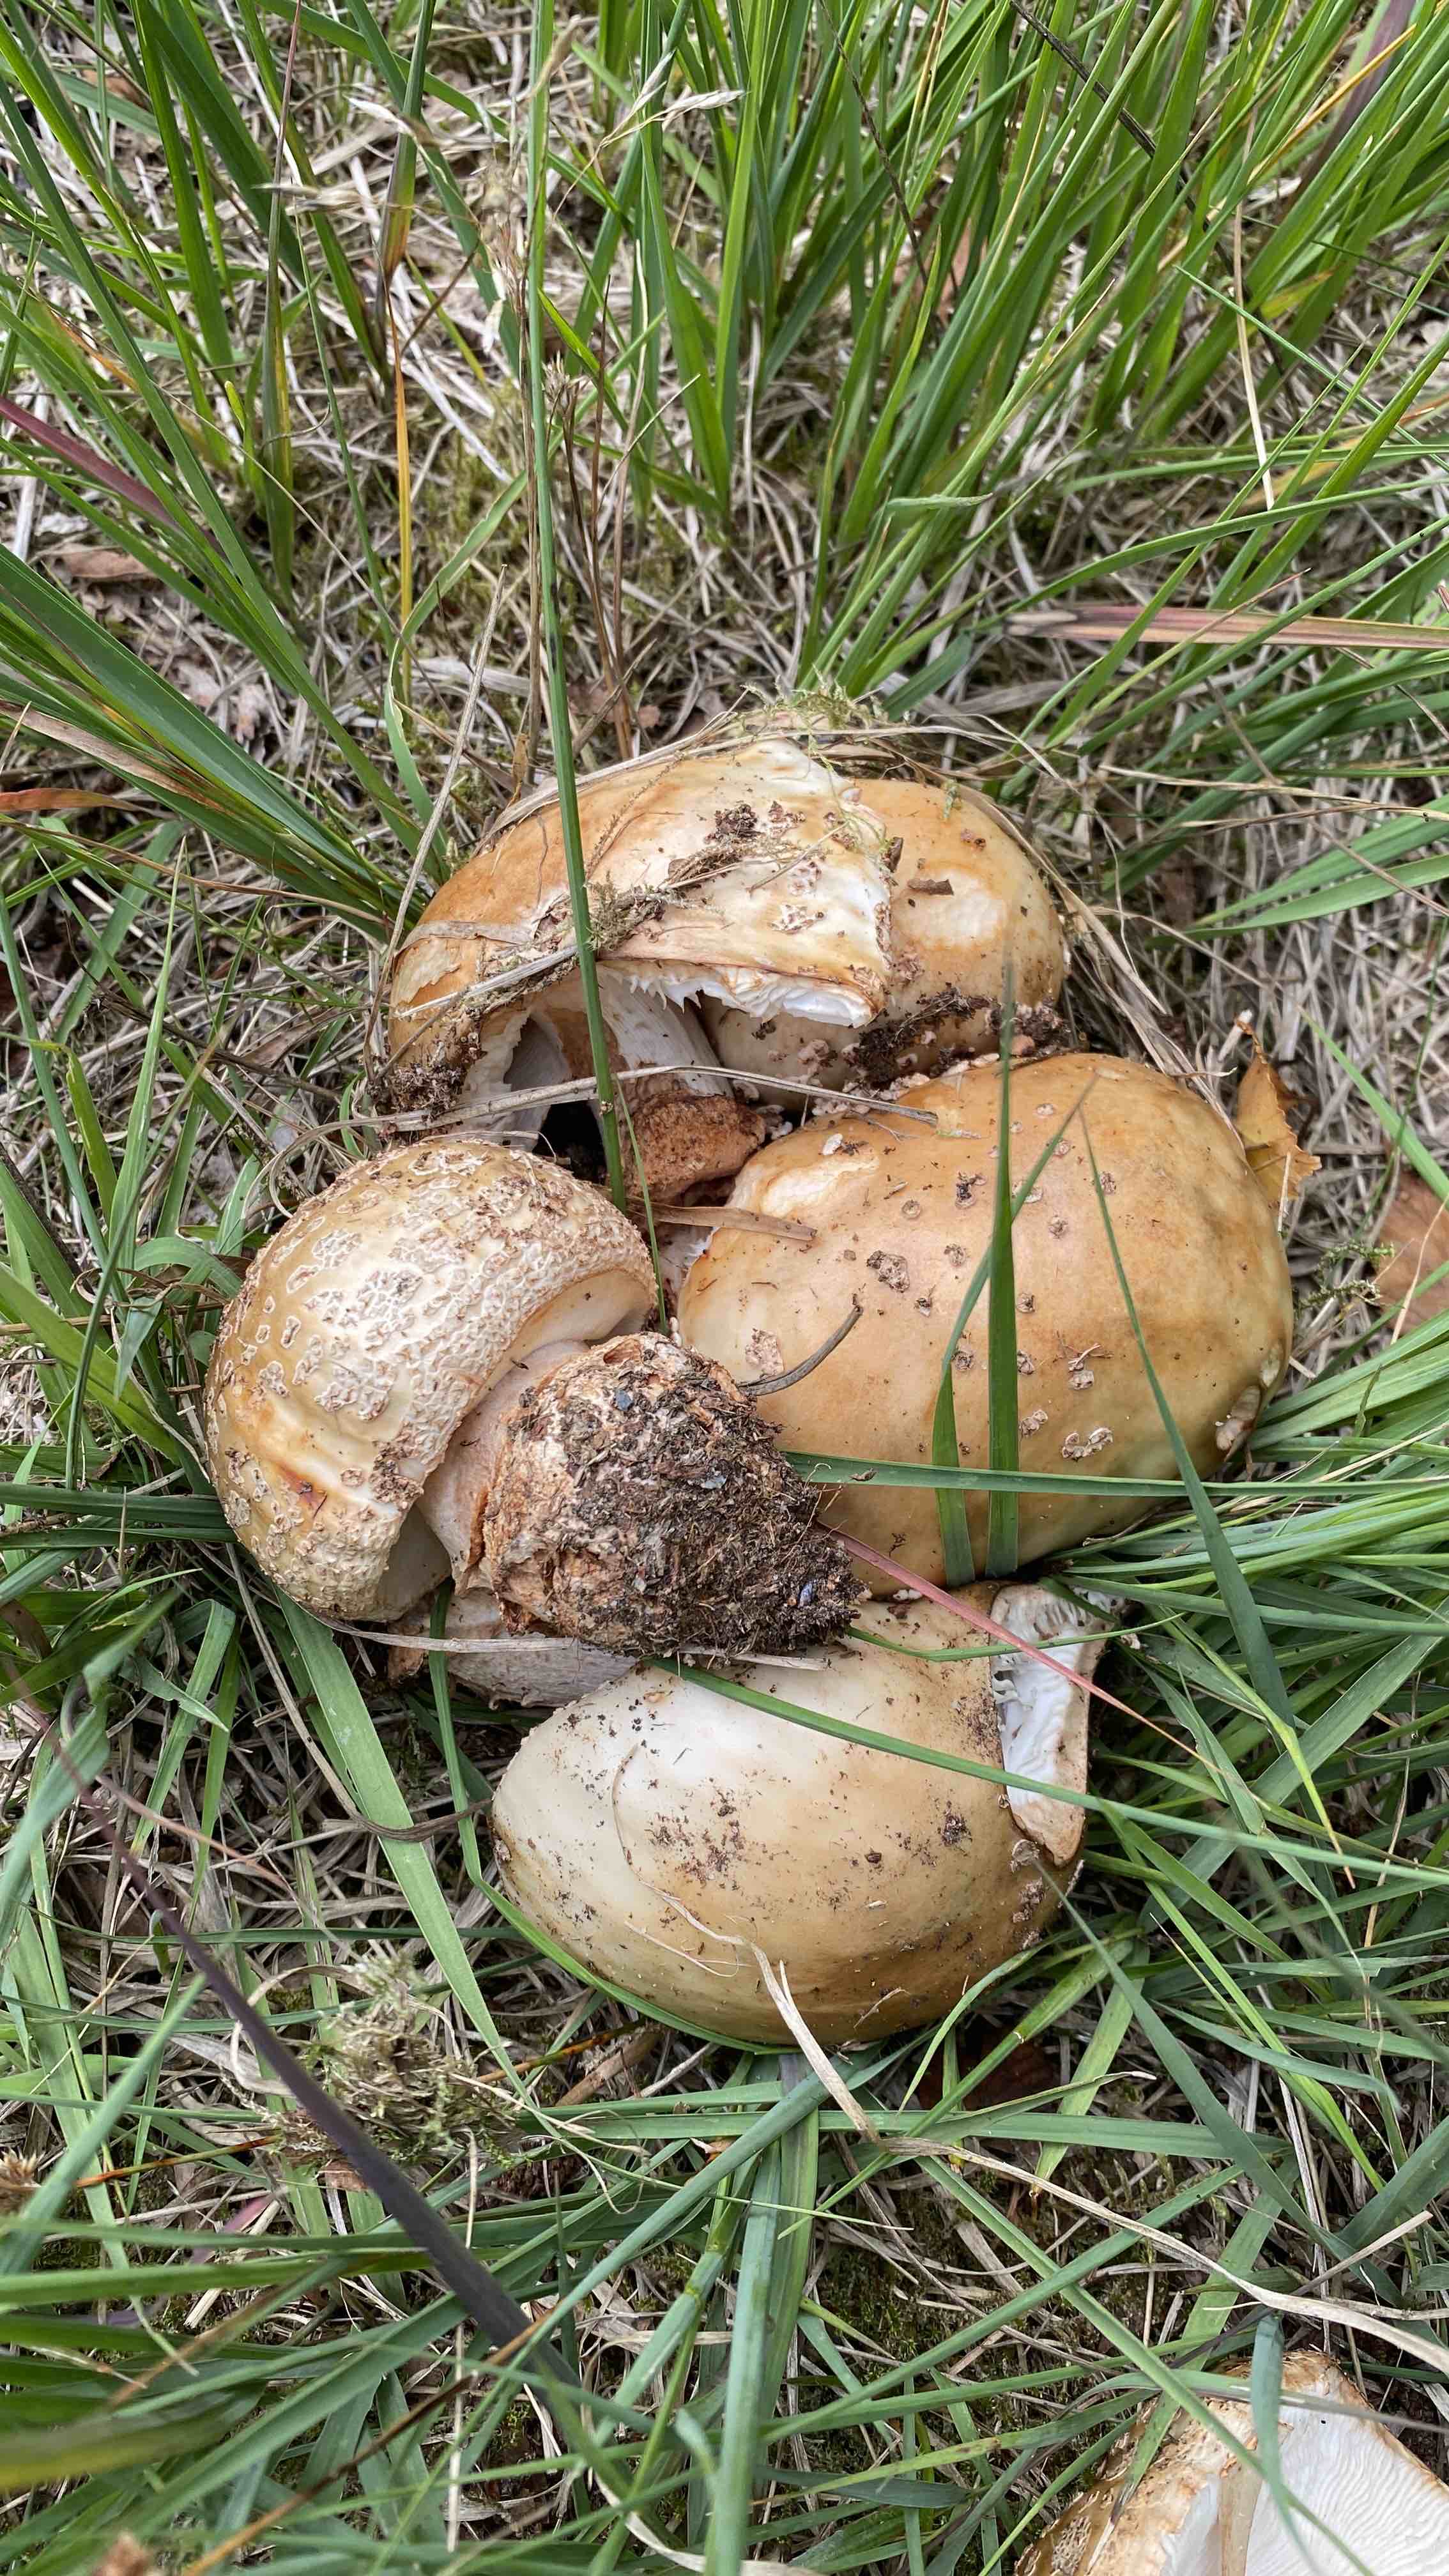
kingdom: Fungi
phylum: Basidiomycota
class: Agaricomycetes
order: Agaricales
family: Amanitaceae
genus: Amanita
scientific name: Amanita rubescens
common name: rødmende fluesvamp
